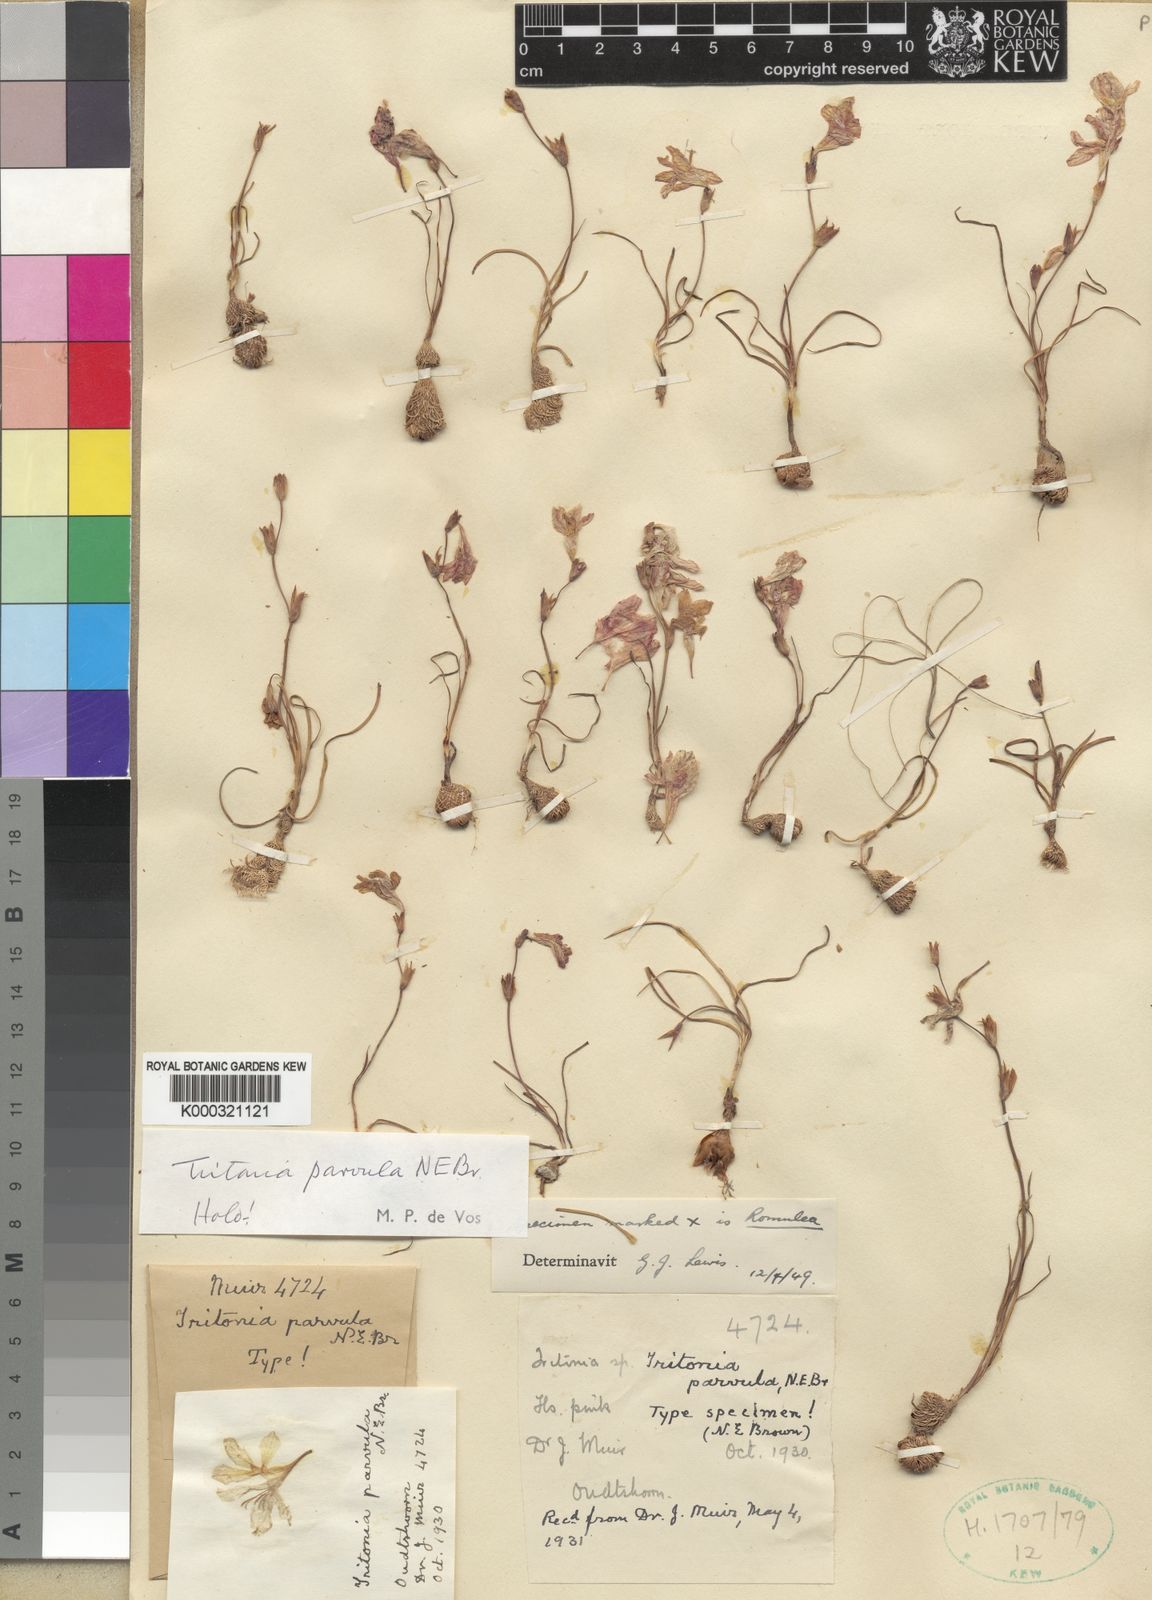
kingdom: Plantae
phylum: Tracheophyta
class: Liliopsida
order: Asparagales
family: Iridaceae
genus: Tritonia
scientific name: Tritonia parvula
